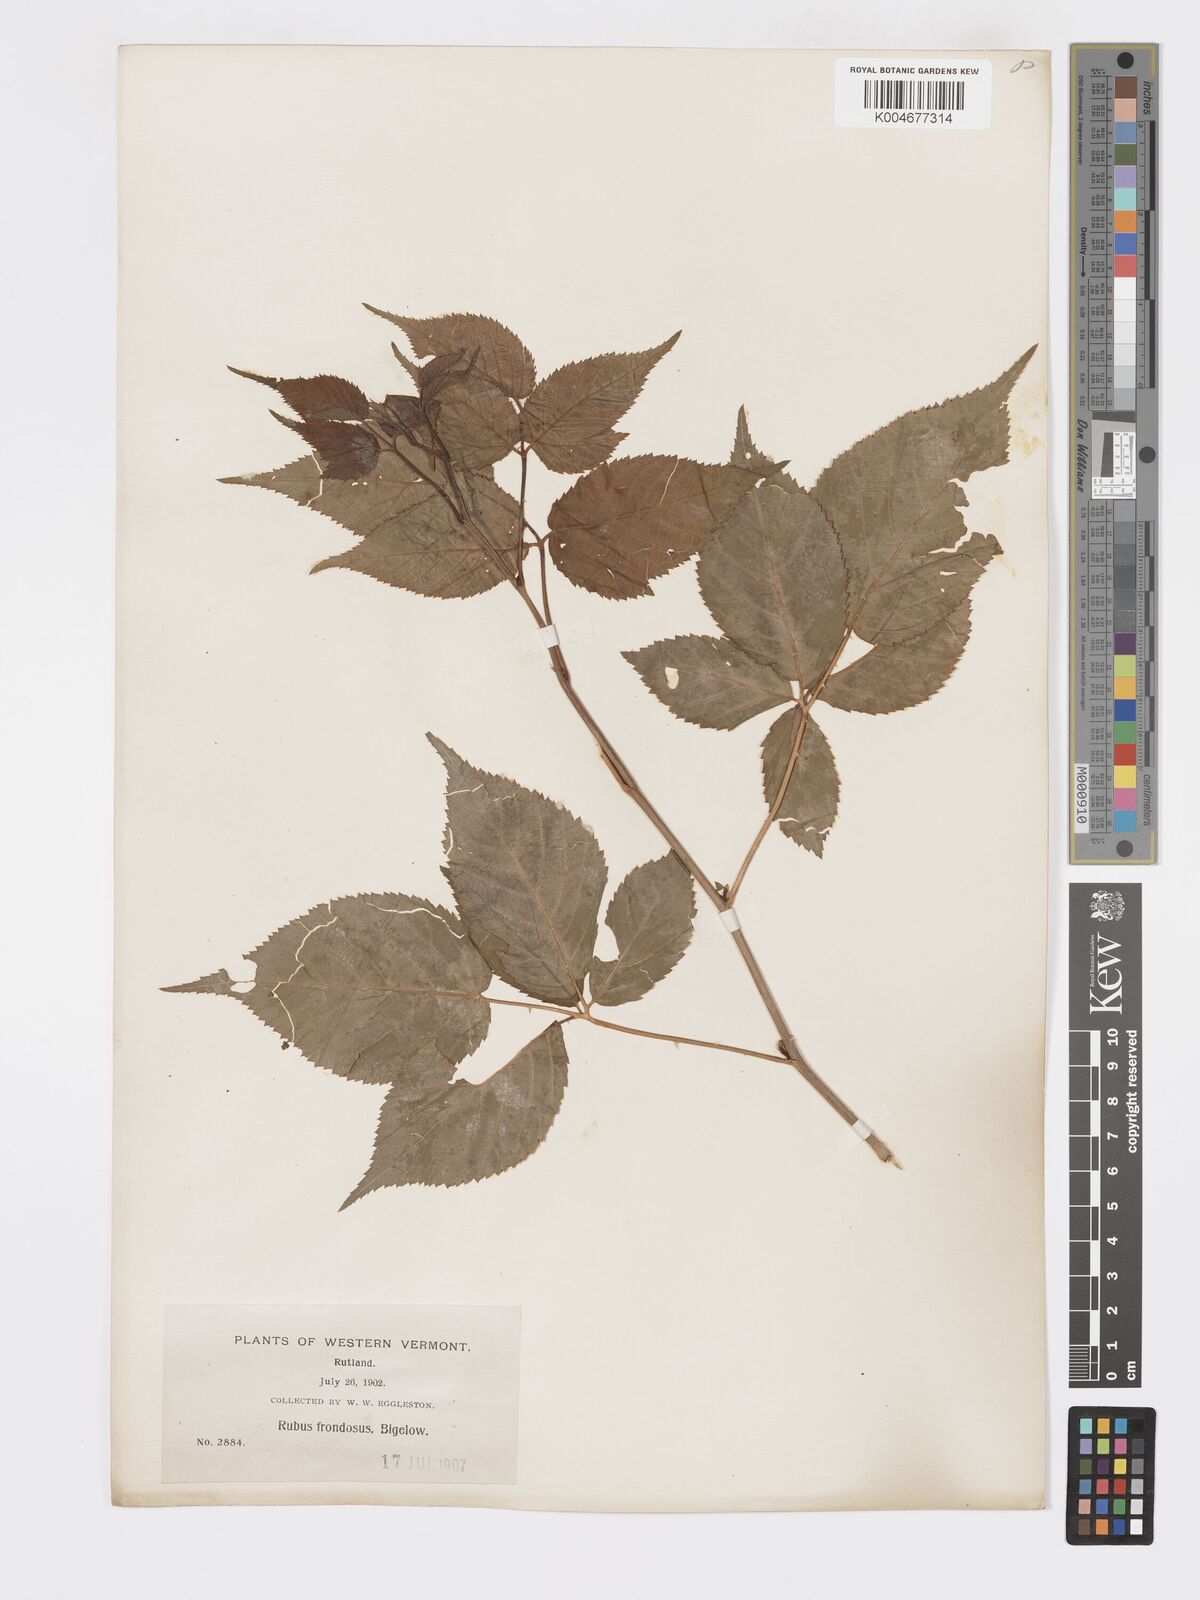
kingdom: Plantae
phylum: Tracheophyta
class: Magnoliopsida
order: Rosales
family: Rosaceae
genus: Rubus
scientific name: Rubus frondosus
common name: Yankee blackberry
